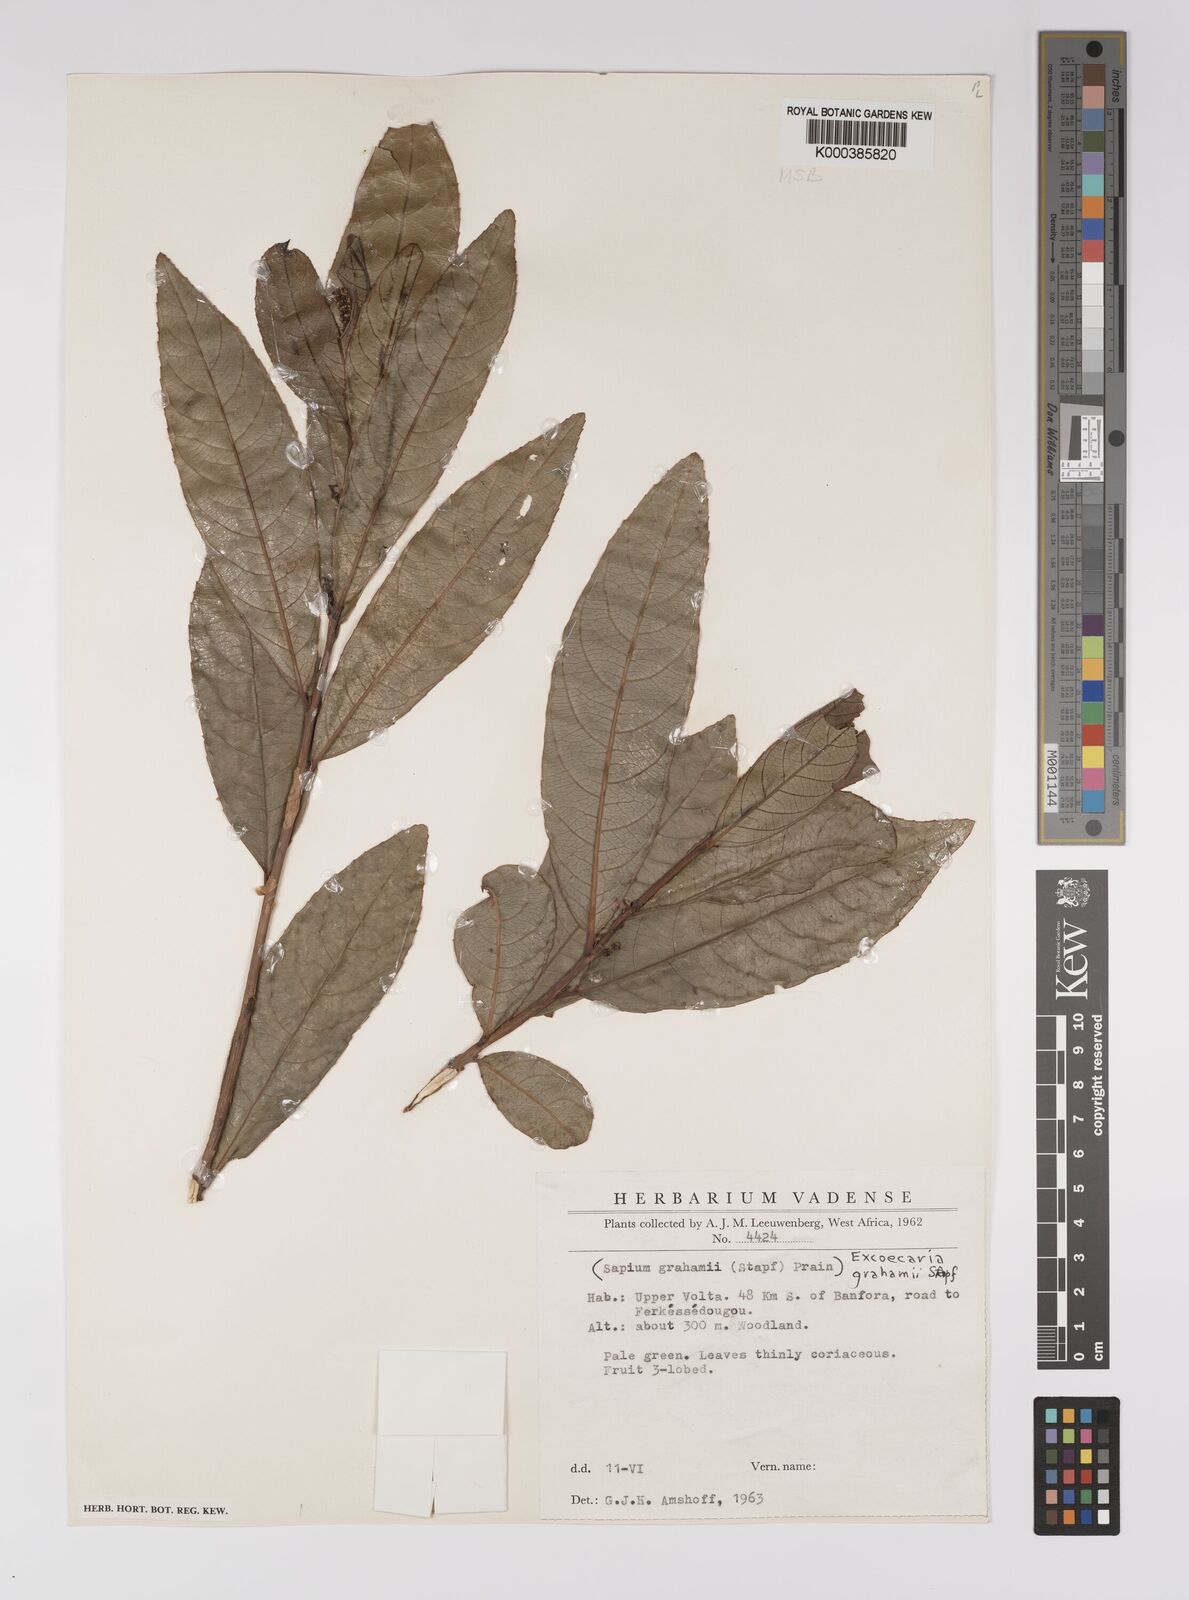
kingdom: Plantae
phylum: Tracheophyta
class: Magnoliopsida
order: Malpighiales
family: Euphorbiaceae
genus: Excoecaria
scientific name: Excoecaria grahamii
